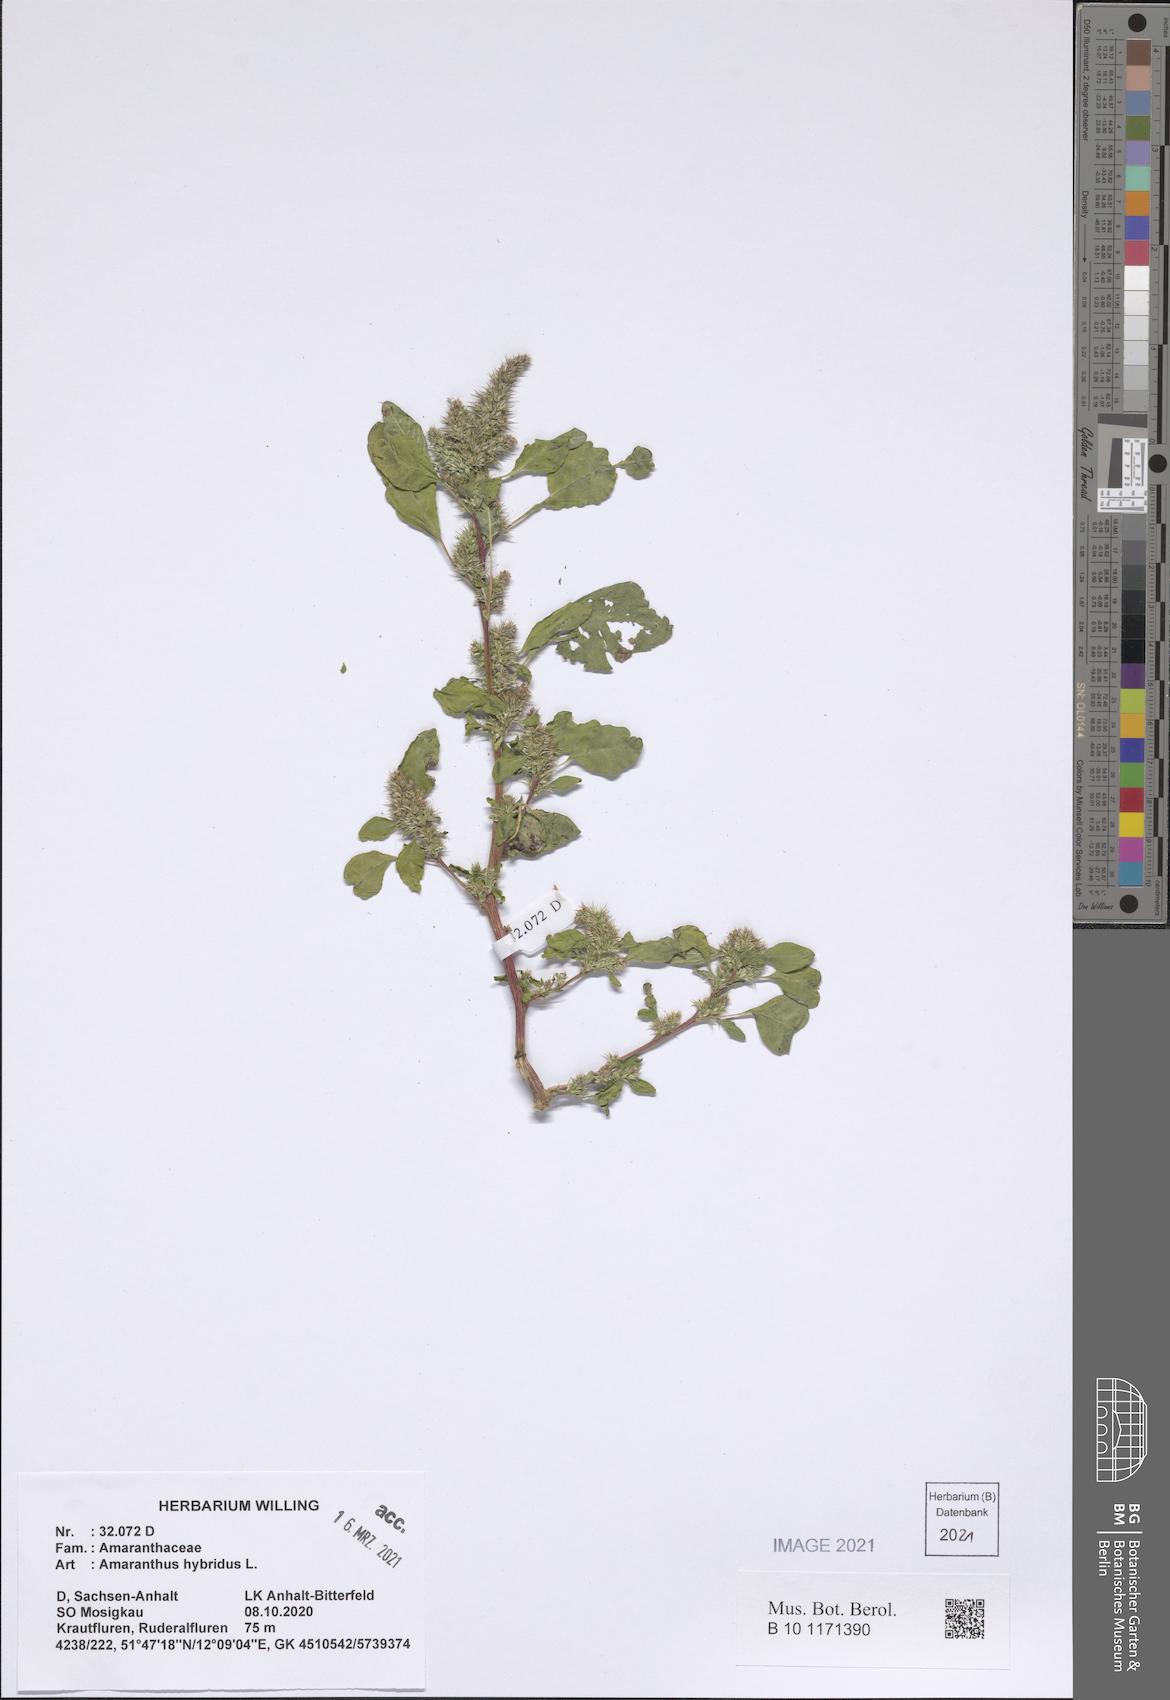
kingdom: Plantae
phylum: Tracheophyta
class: Magnoliopsida
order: Caryophyllales
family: Amaranthaceae
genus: Amaranthus
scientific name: Amaranthus hybridus
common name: Green amaranth
